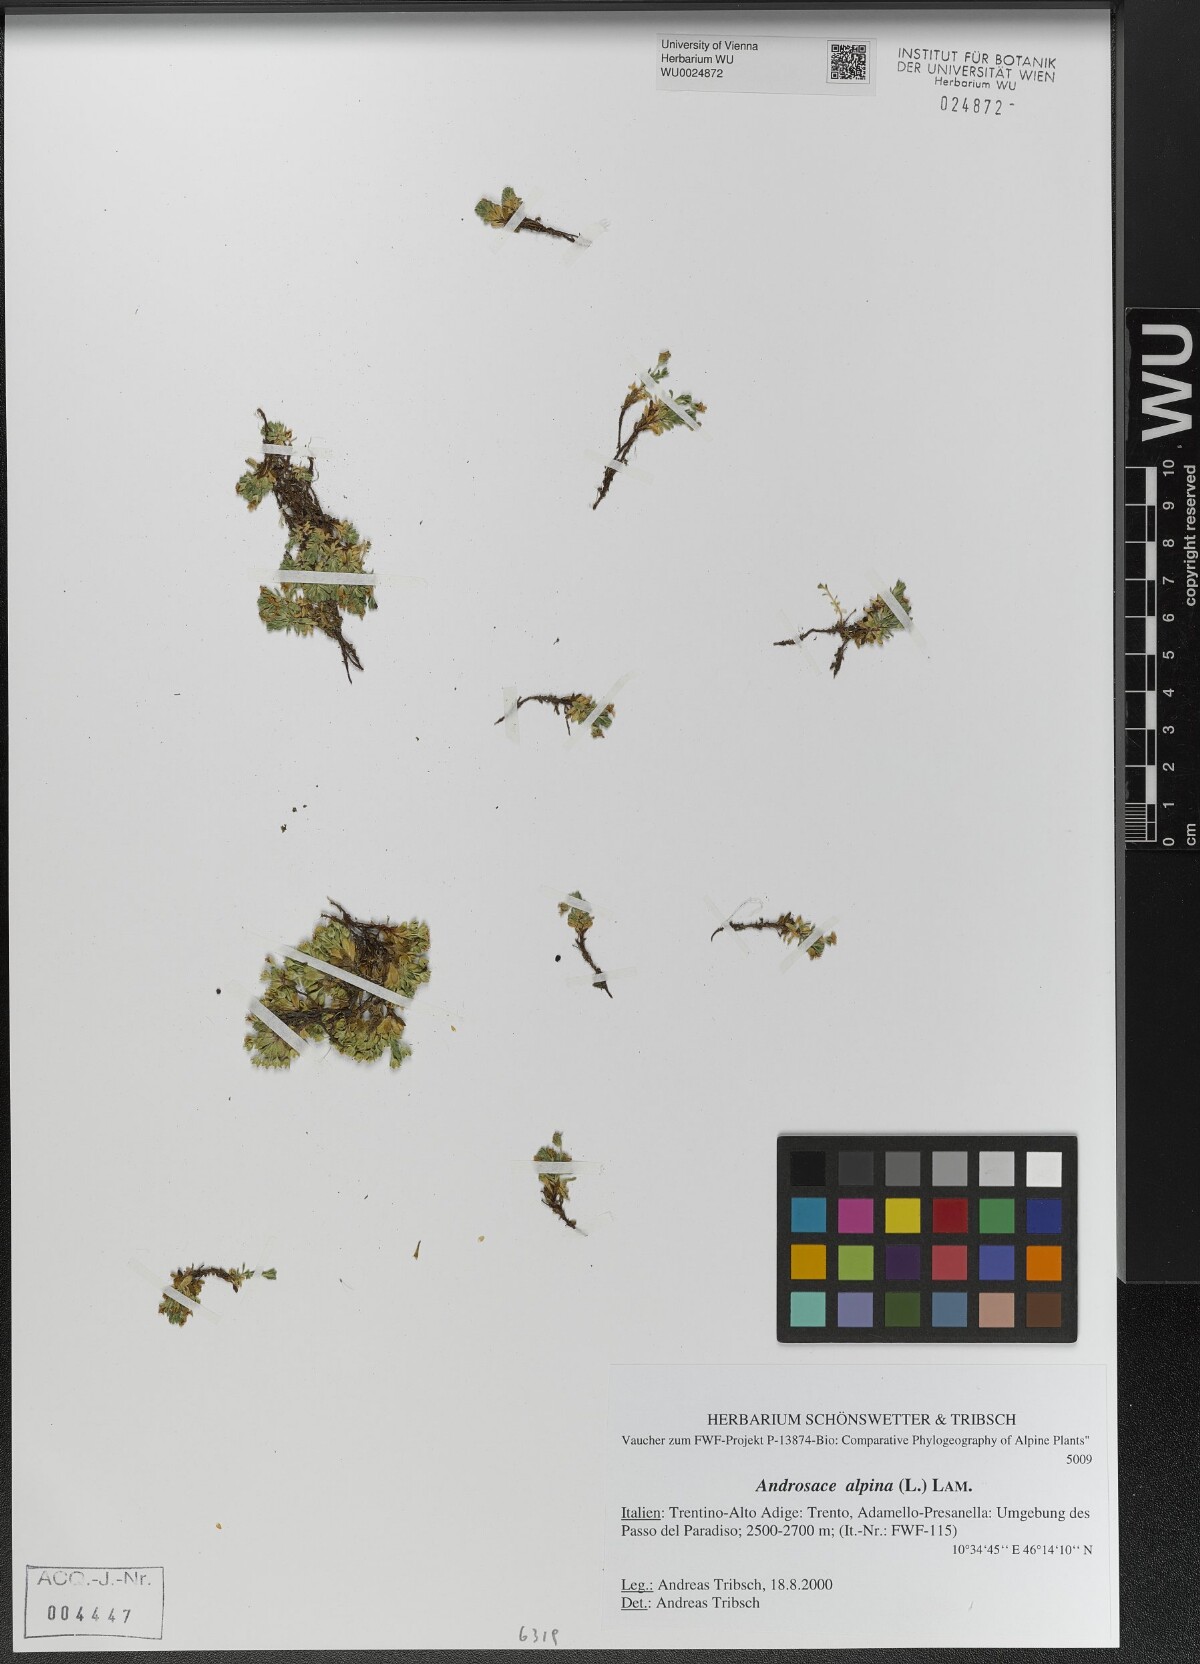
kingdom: Plantae
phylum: Tracheophyta
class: Magnoliopsida
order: Ericales
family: Primulaceae
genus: Androsace
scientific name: Androsace alpina
